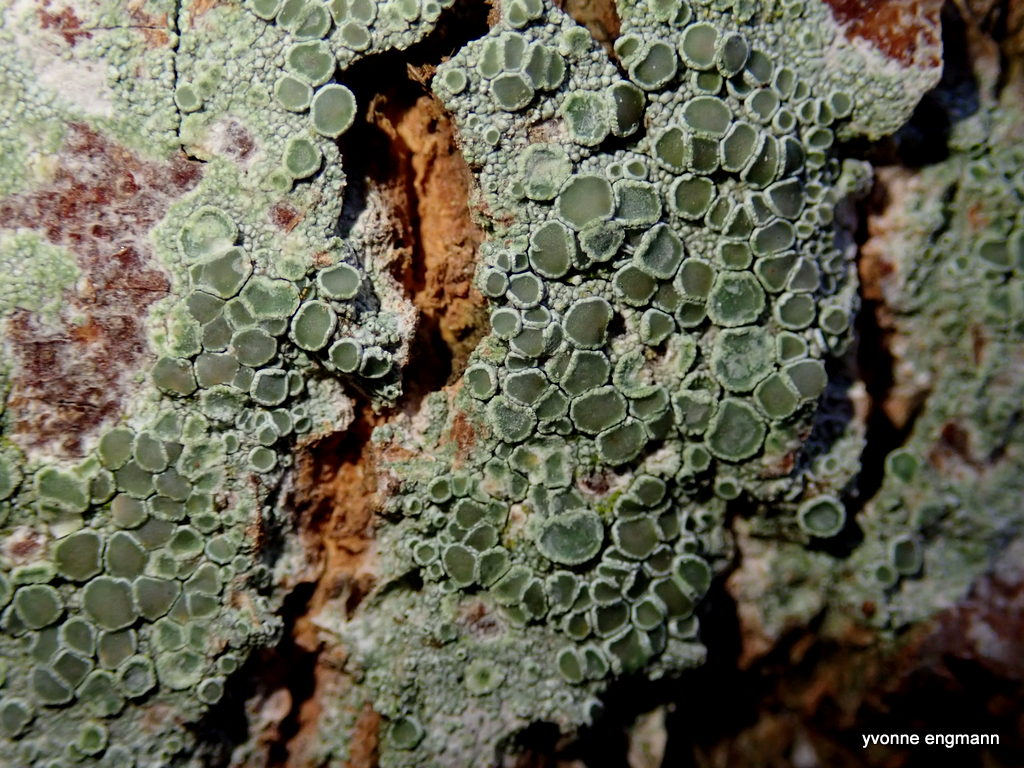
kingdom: Fungi
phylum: Ascomycota
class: Lecanoromycetes
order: Lecanorales
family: Lecanoraceae
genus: Lecanora
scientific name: Lecanora chlarotera
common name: brun kantskivelav
